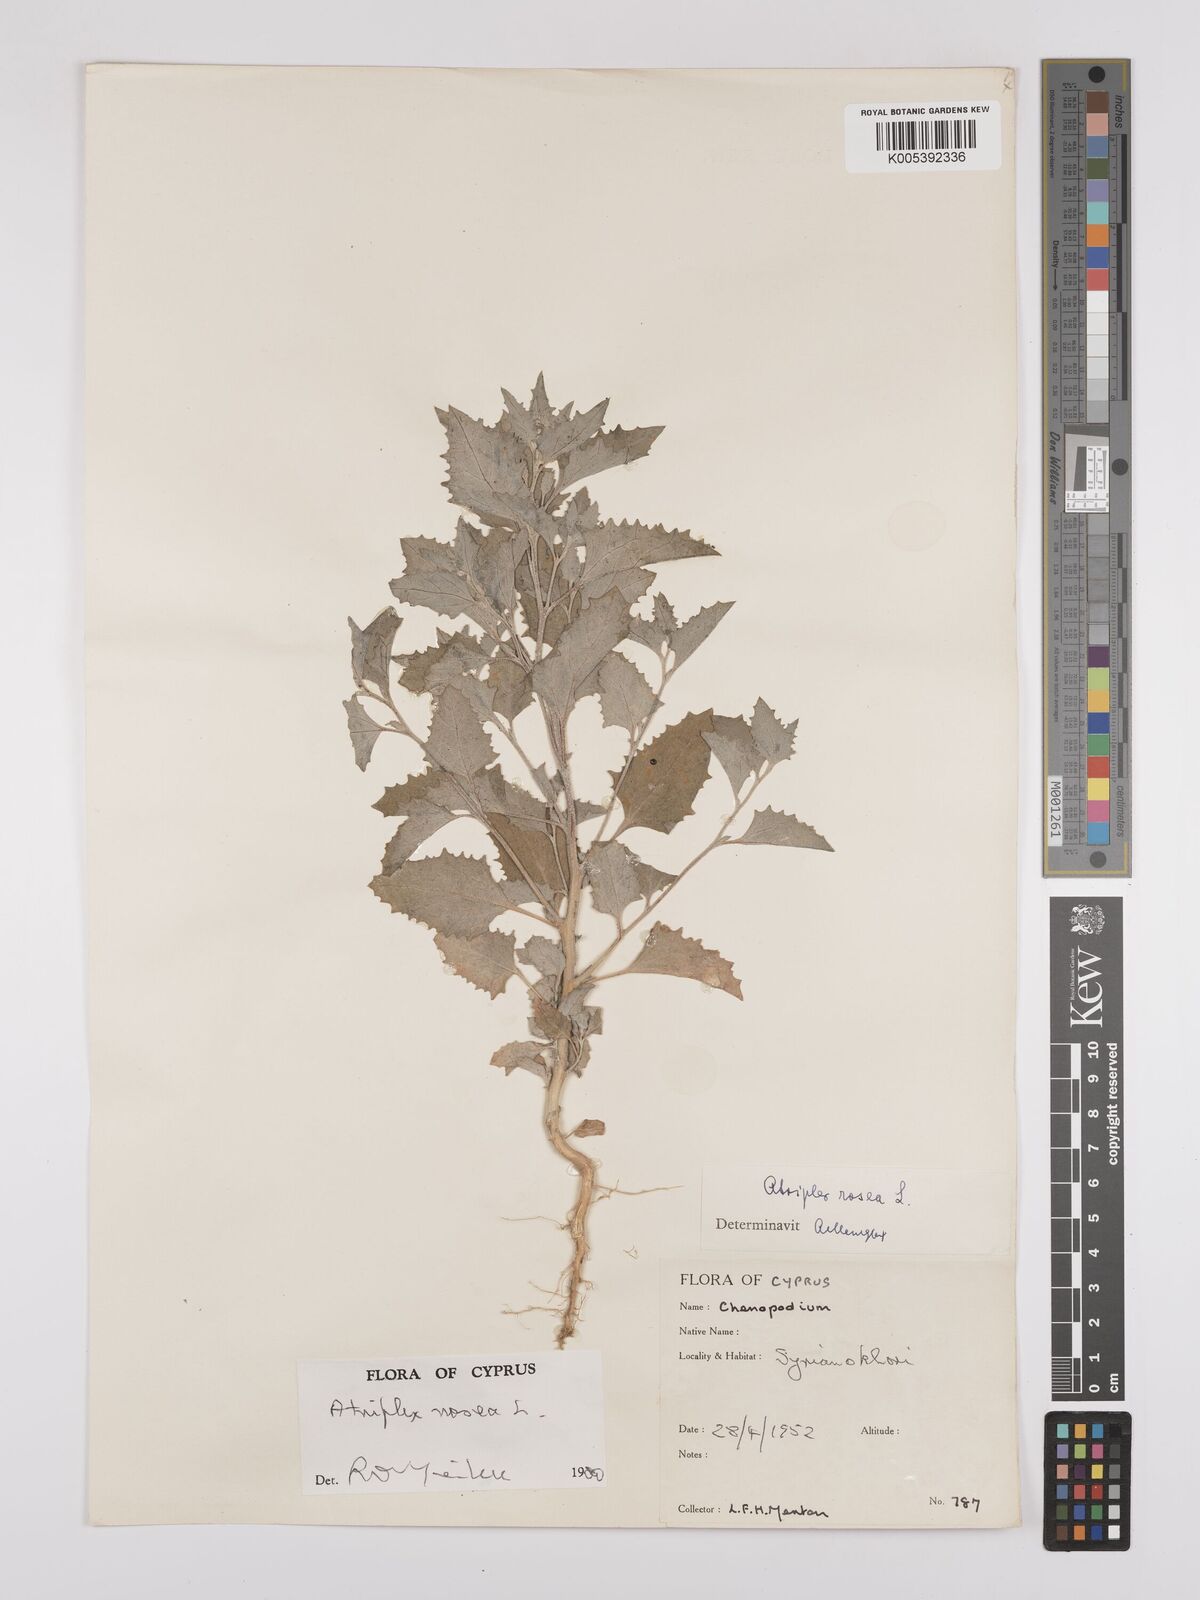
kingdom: Plantae
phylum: Tracheophyta
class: Magnoliopsida
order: Caryophyllales
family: Amaranthaceae
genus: Atriplex
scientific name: Atriplex
